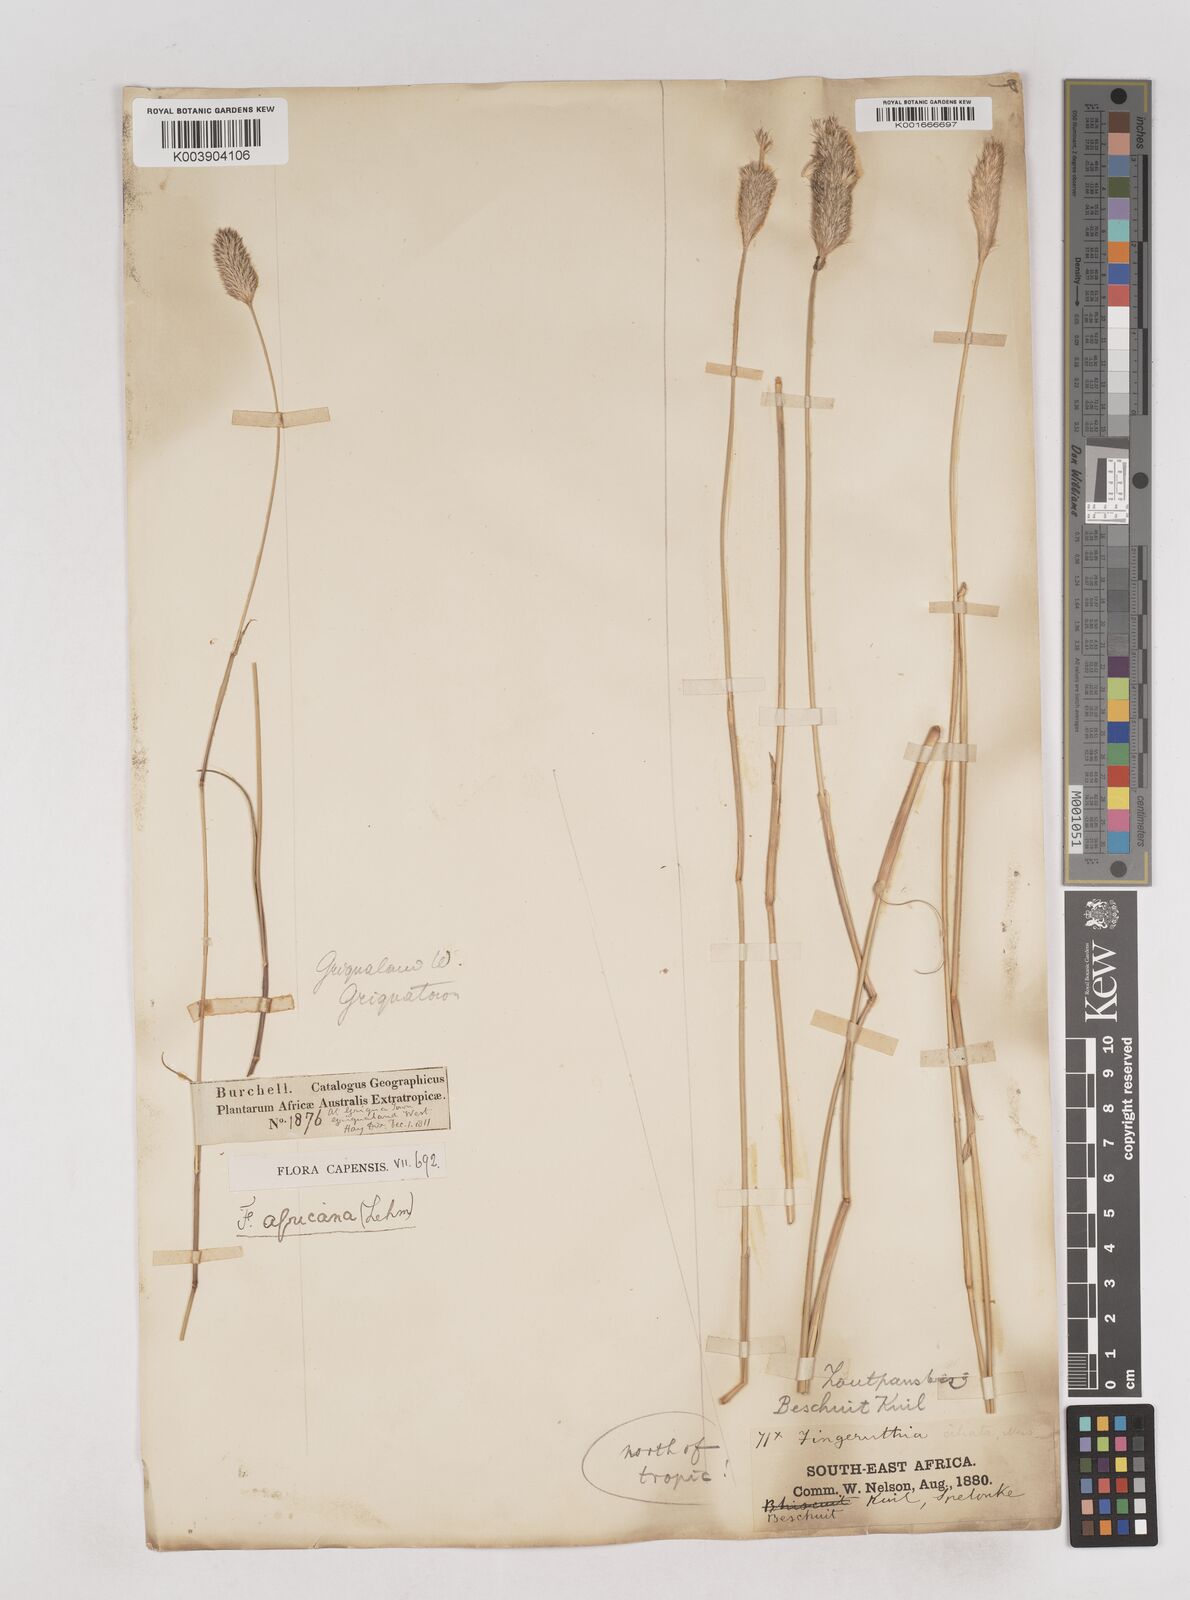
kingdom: Plantae
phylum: Tracheophyta
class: Liliopsida
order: Poales
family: Poaceae
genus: Fingerhuthia
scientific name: Fingerhuthia africana
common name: Zulu fescue
